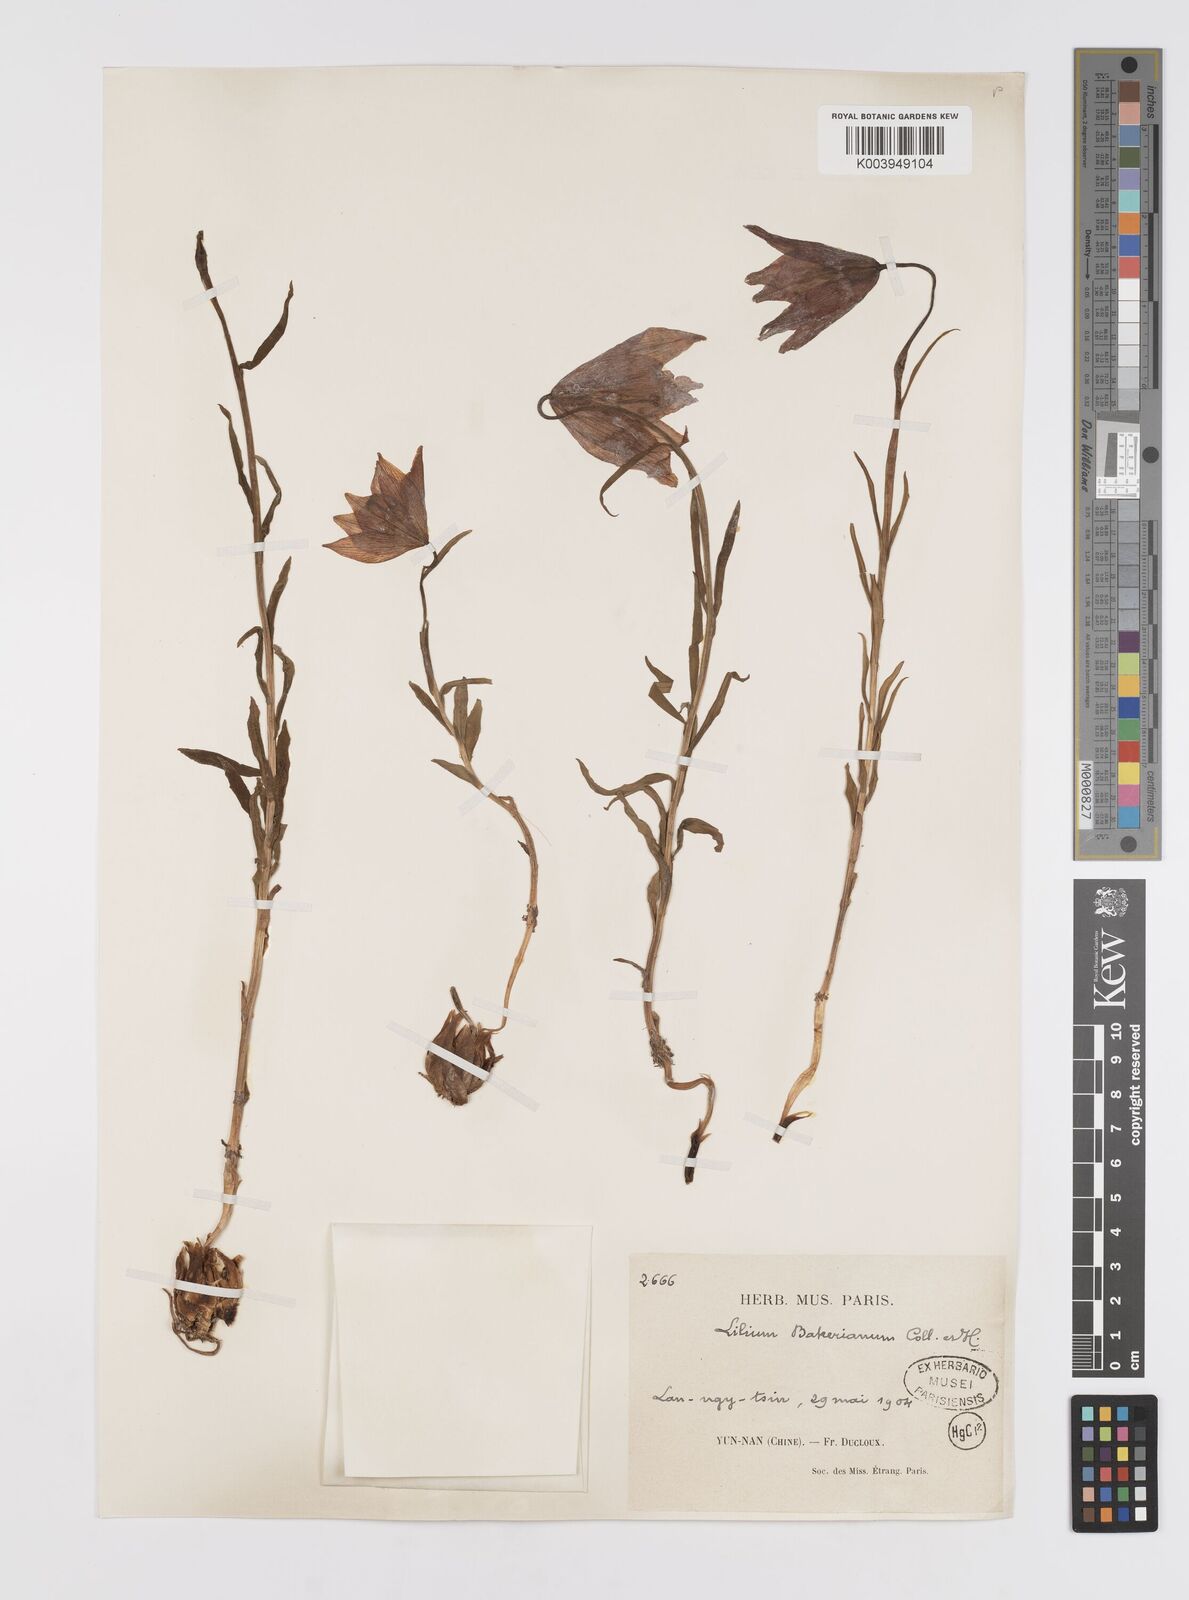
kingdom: Plantae
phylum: Tracheophyta
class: Liliopsida
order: Liliales
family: Liliaceae
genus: Lilium
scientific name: Lilium amoenum
